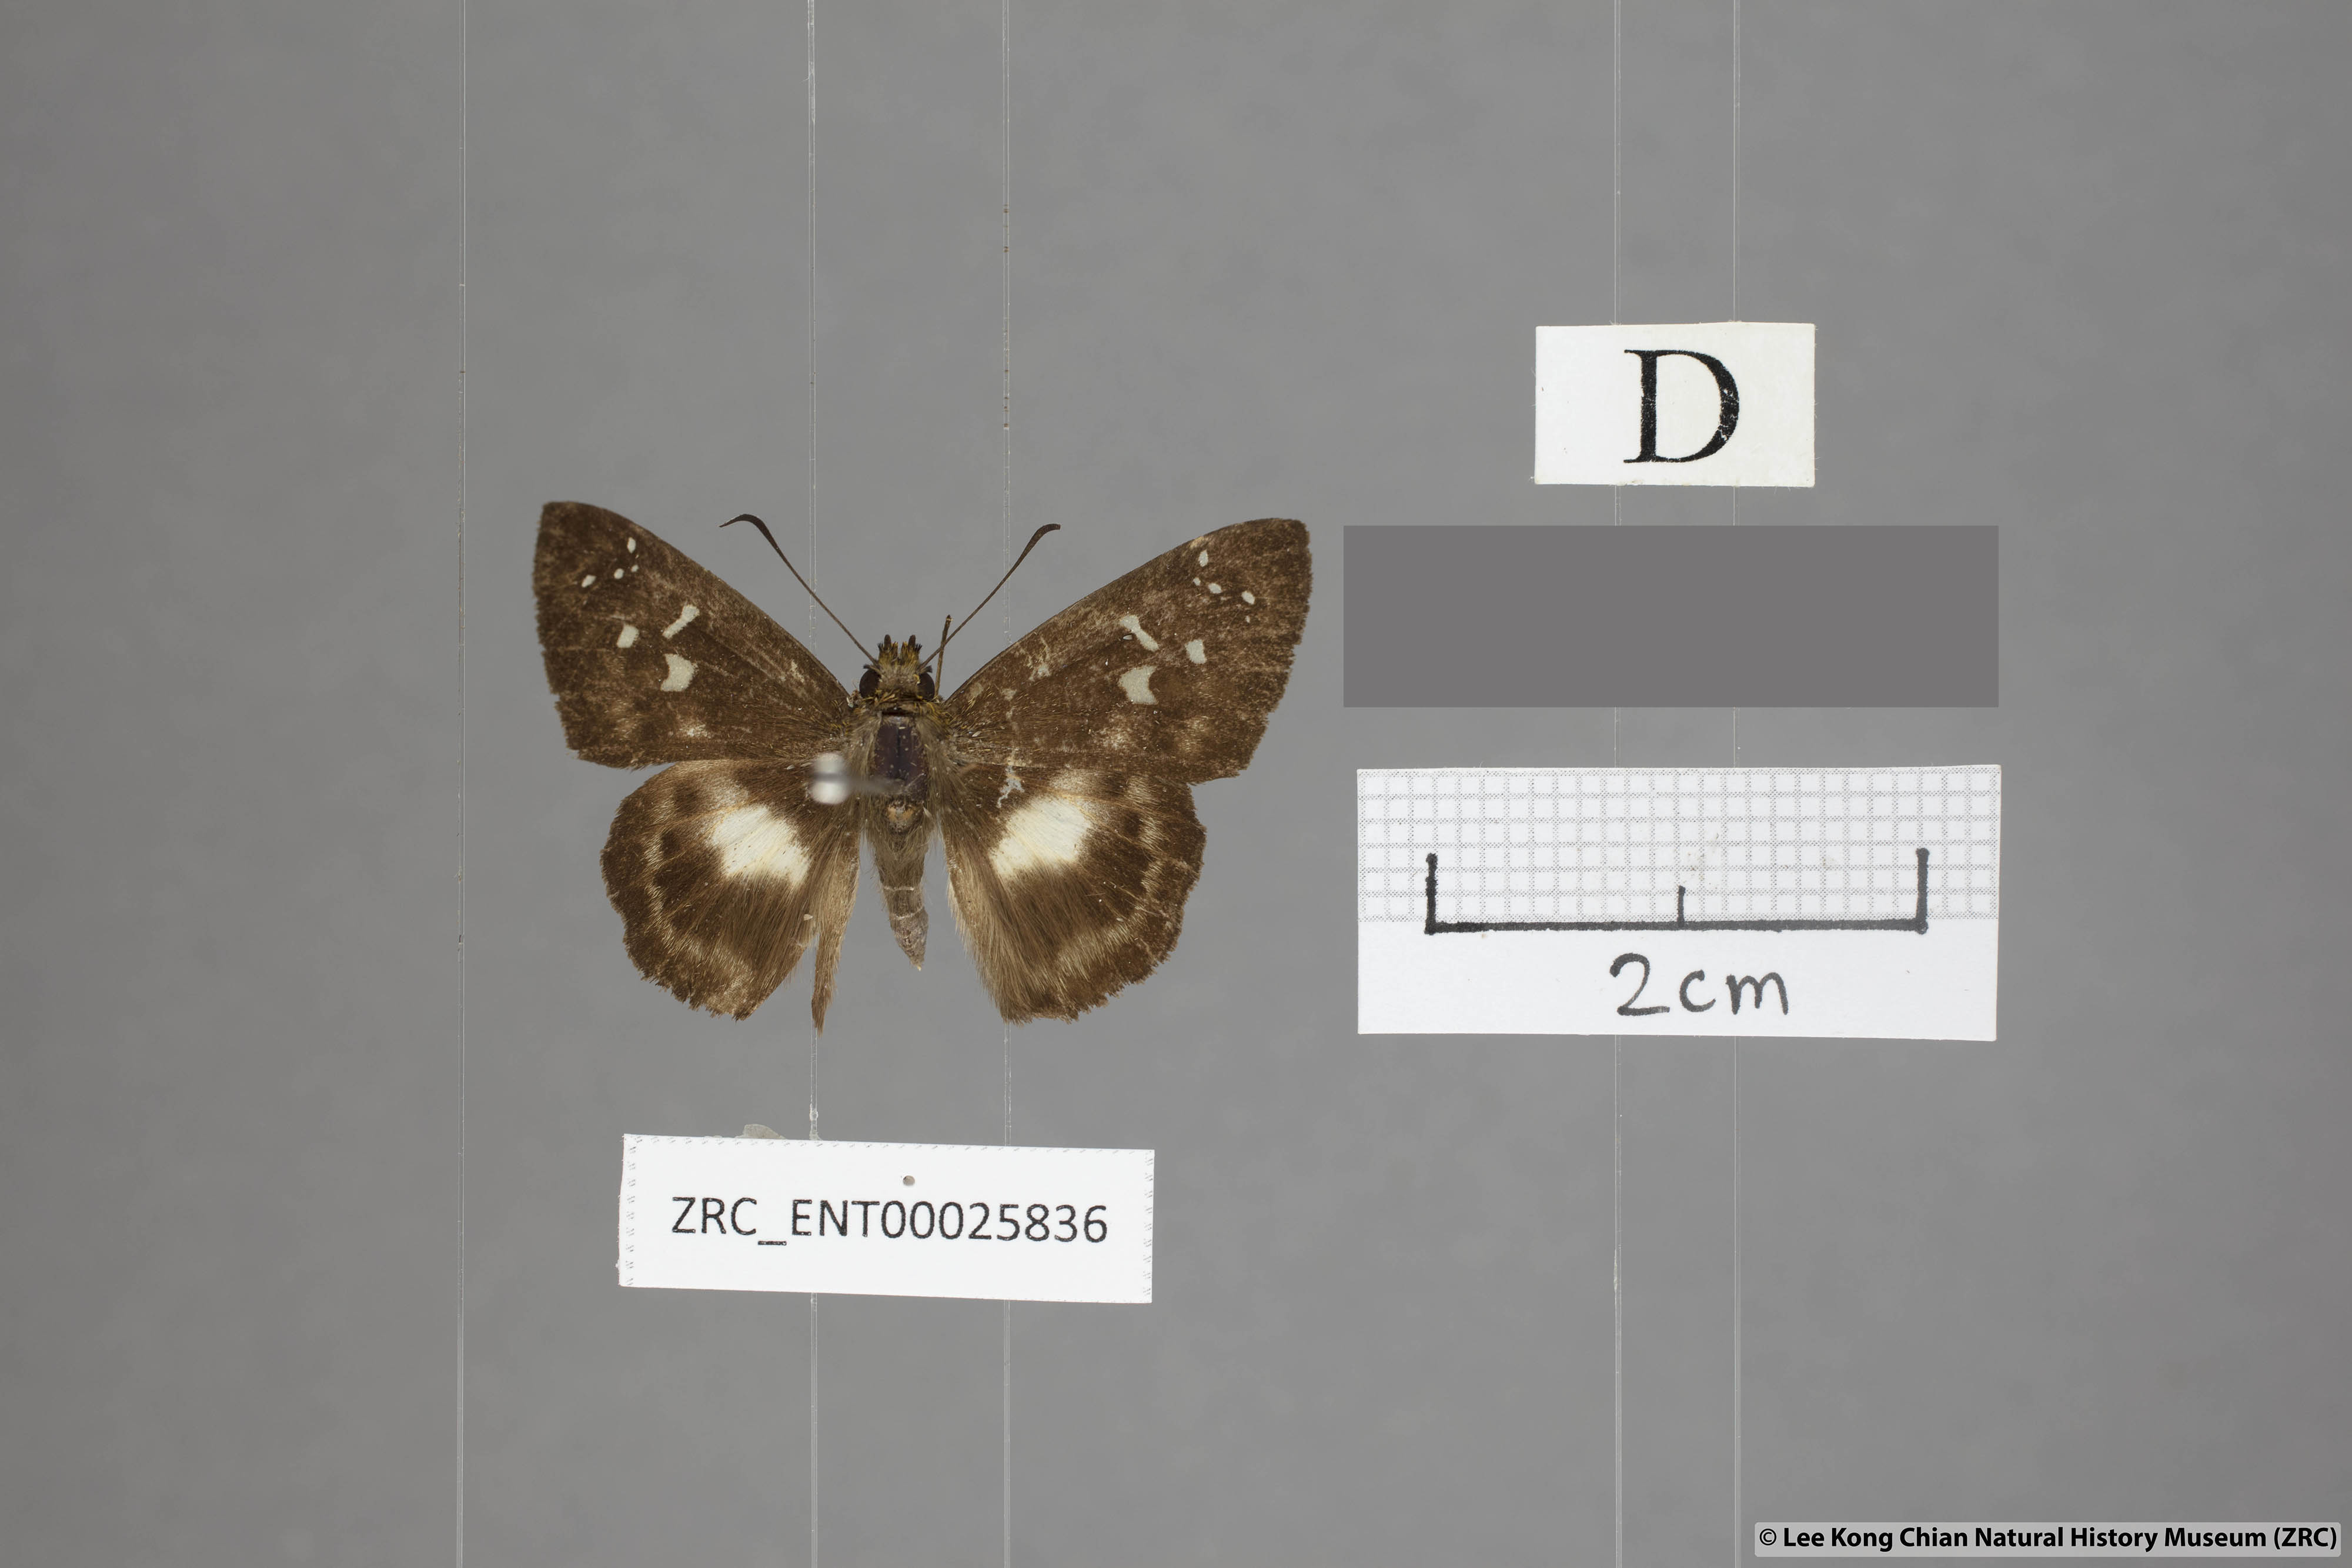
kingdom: Animalia
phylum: Arthropoda
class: Insecta
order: Lepidoptera
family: Hesperiidae
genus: Daimio
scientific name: Daimio
